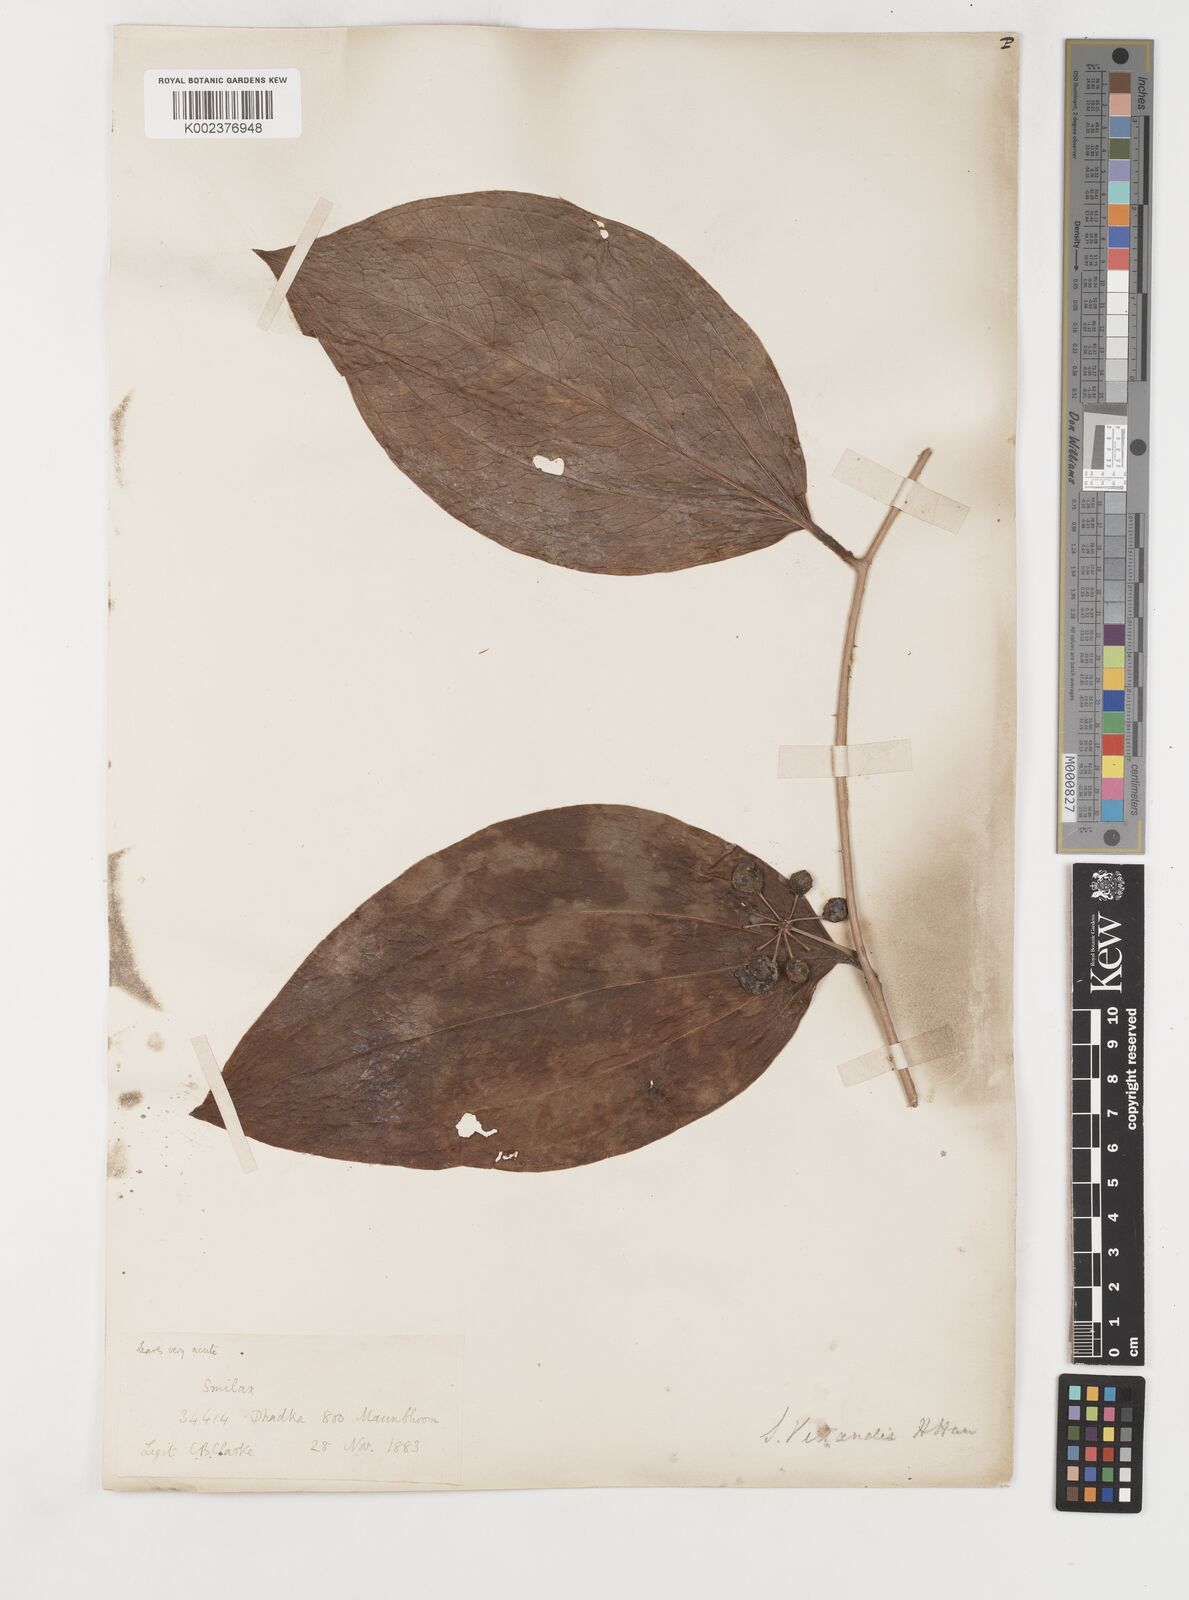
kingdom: Plantae
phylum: Tracheophyta
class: Liliopsida
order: Liliales
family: Smilacaceae
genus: Smilax
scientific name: Smilax zeylanica
